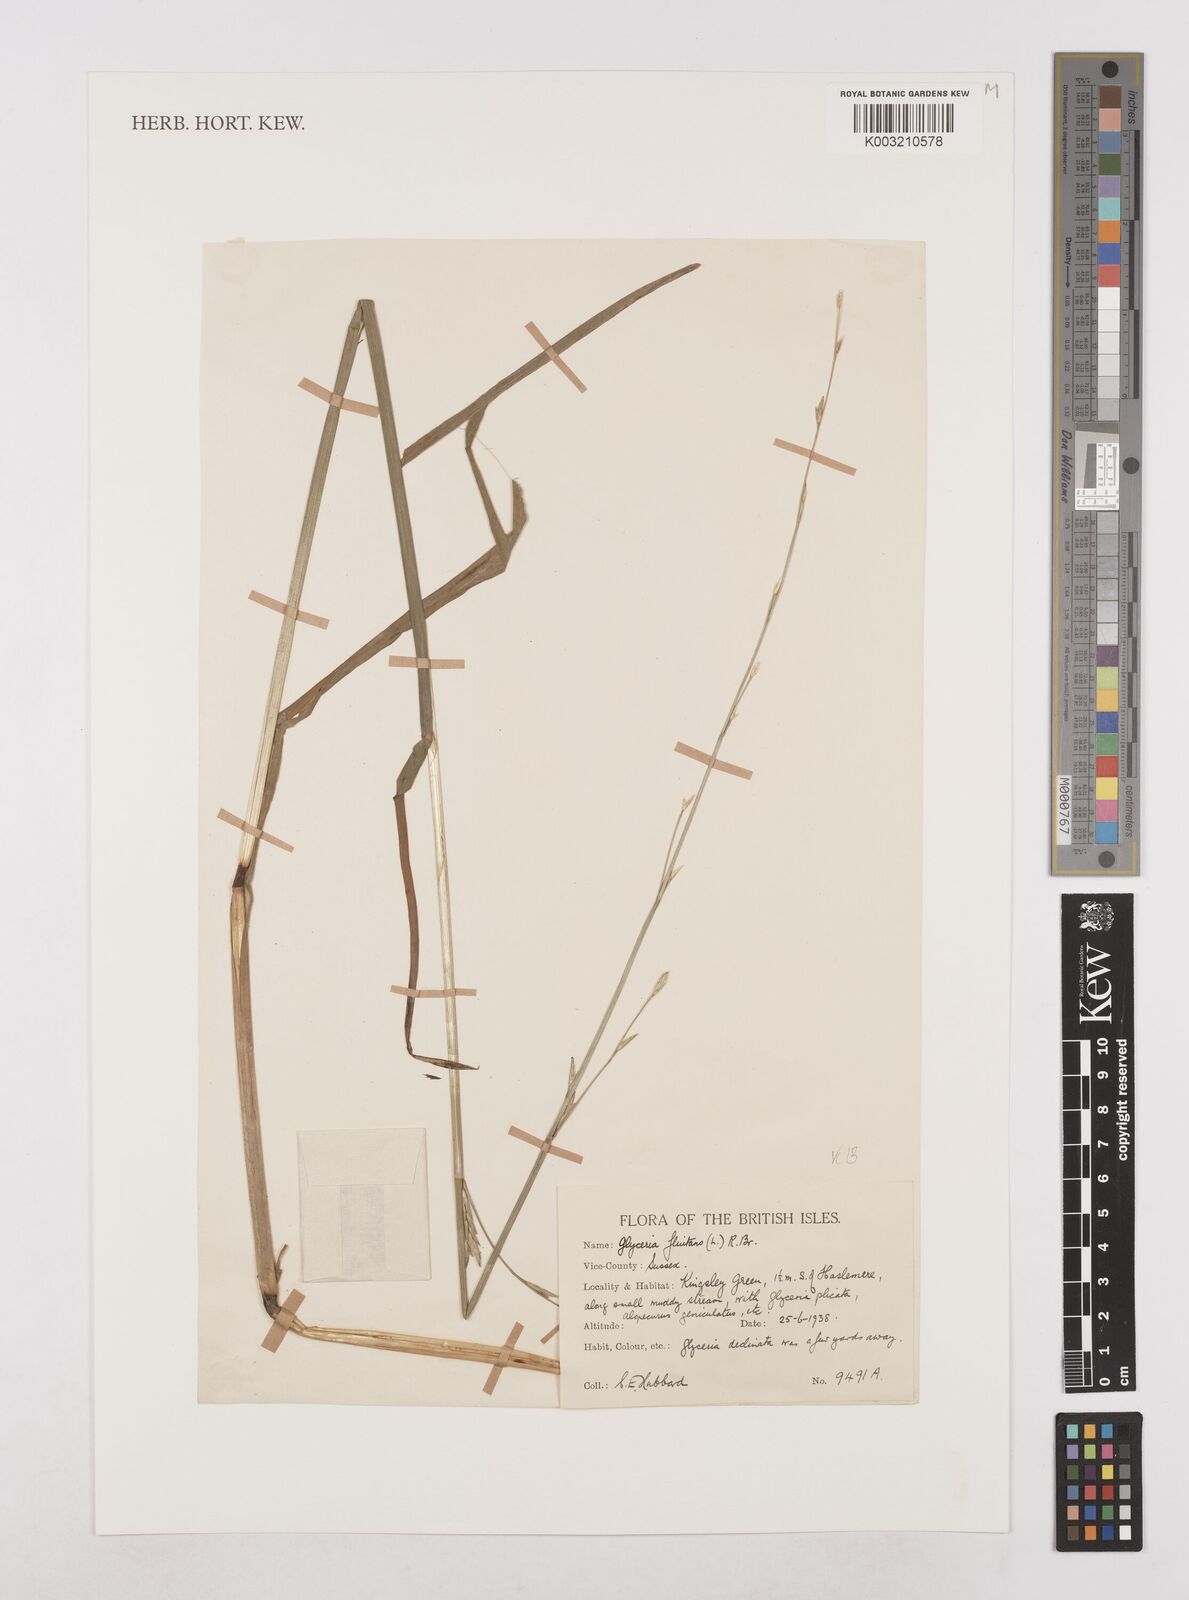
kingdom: Plantae
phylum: Tracheophyta
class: Liliopsida
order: Poales
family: Poaceae
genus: Glyceria
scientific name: Glyceria fluitans
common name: Floating sweet-grass
